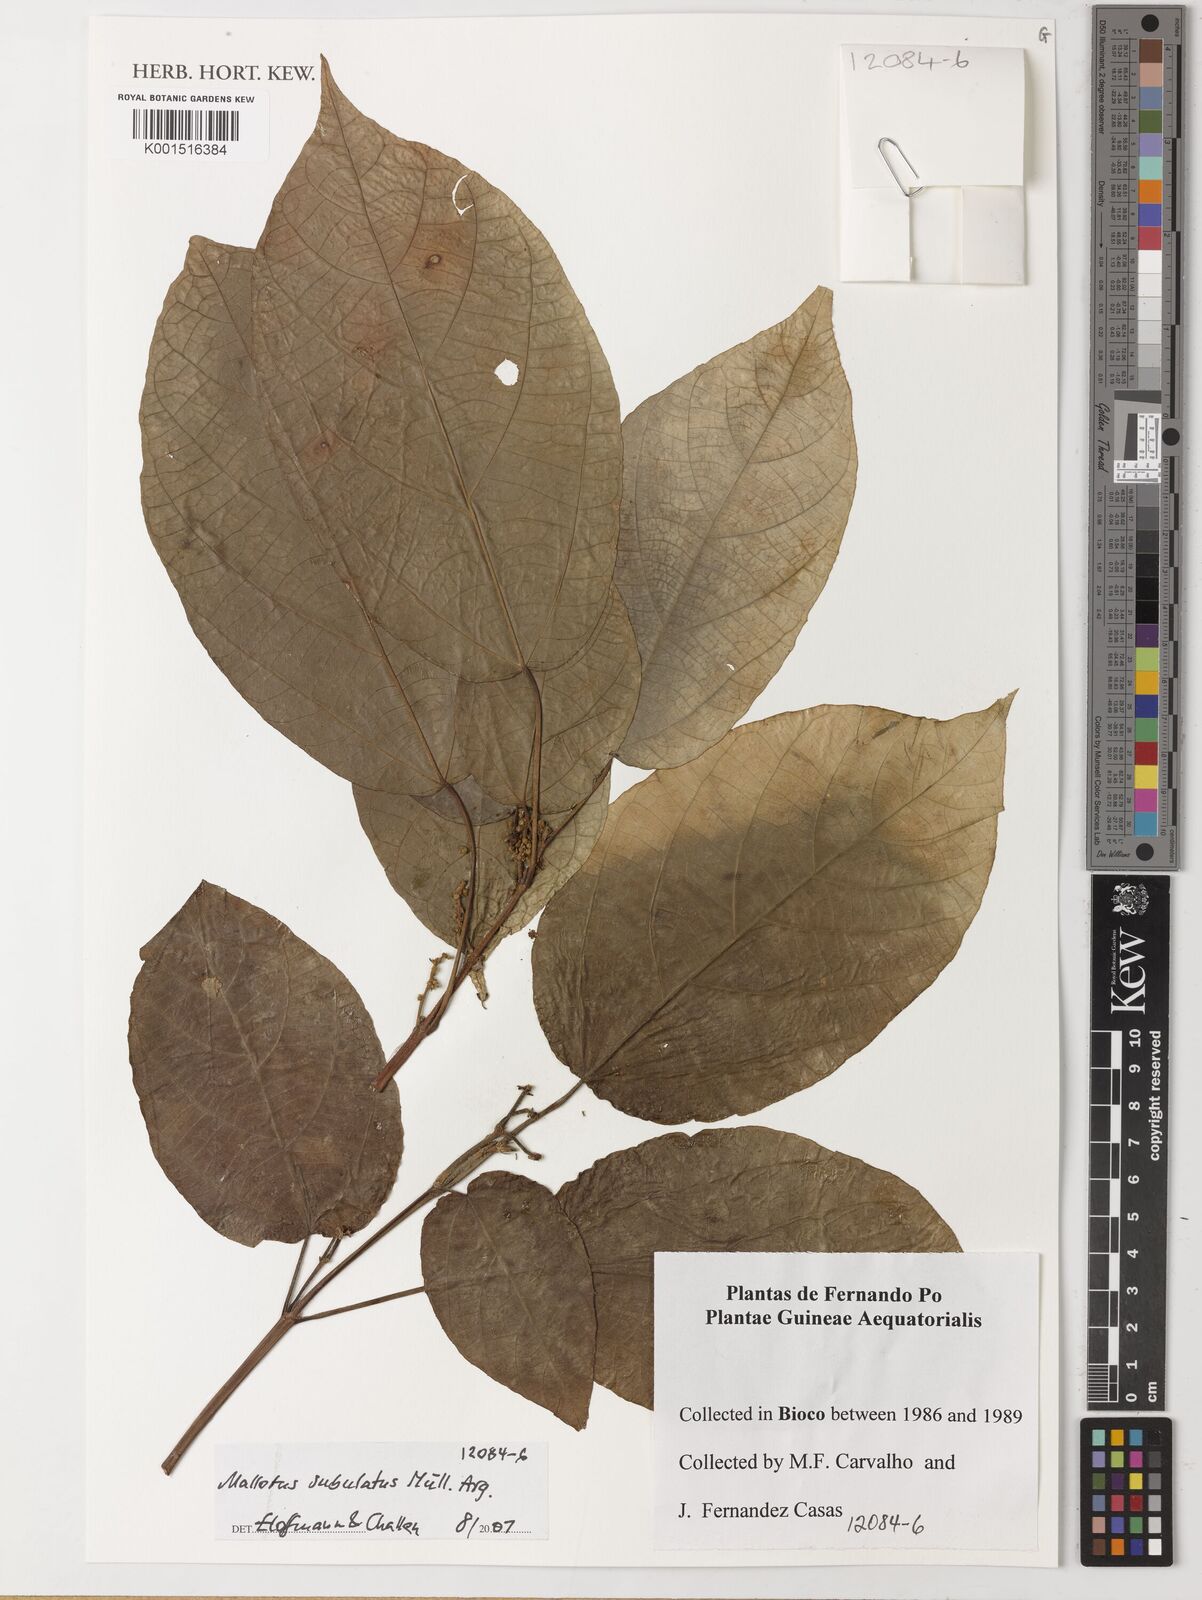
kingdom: Plantae
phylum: Tracheophyta
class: Magnoliopsida
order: Malpighiales
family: Euphorbiaceae
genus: Mallotus
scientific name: Mallotus subulatus
